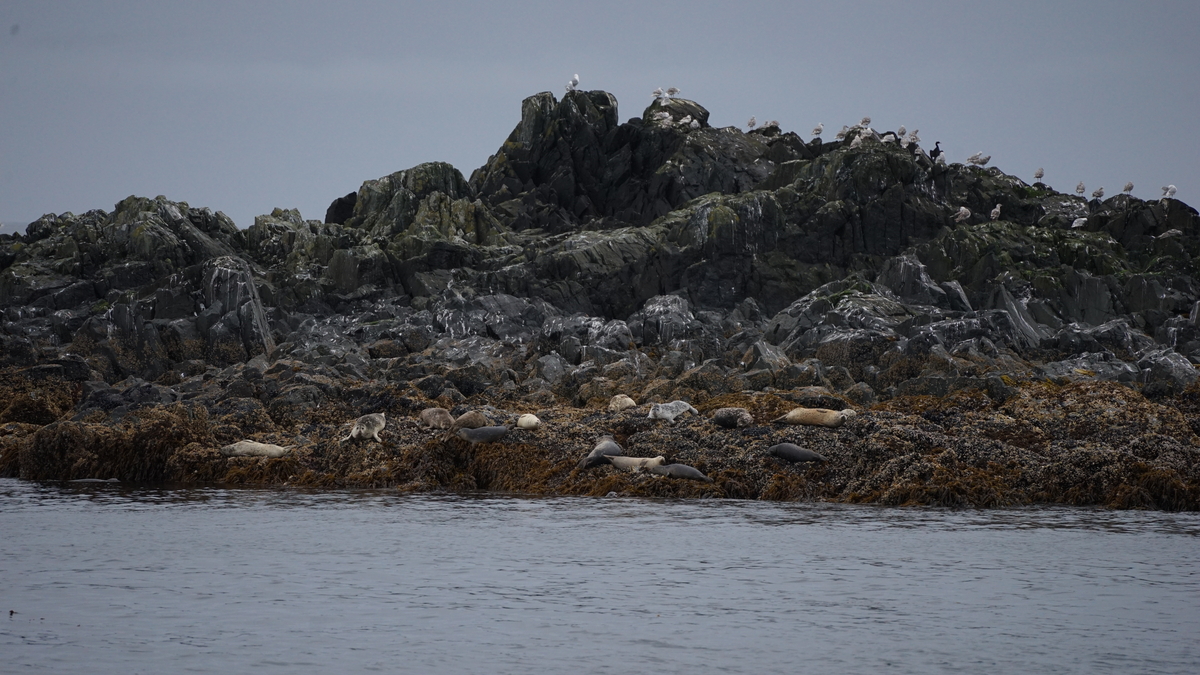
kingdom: Animalia
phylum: Chordata
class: Mammalia
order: Carnivora
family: Phocidae
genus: Phoca
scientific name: Phoca vitulina
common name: Harbor seal
